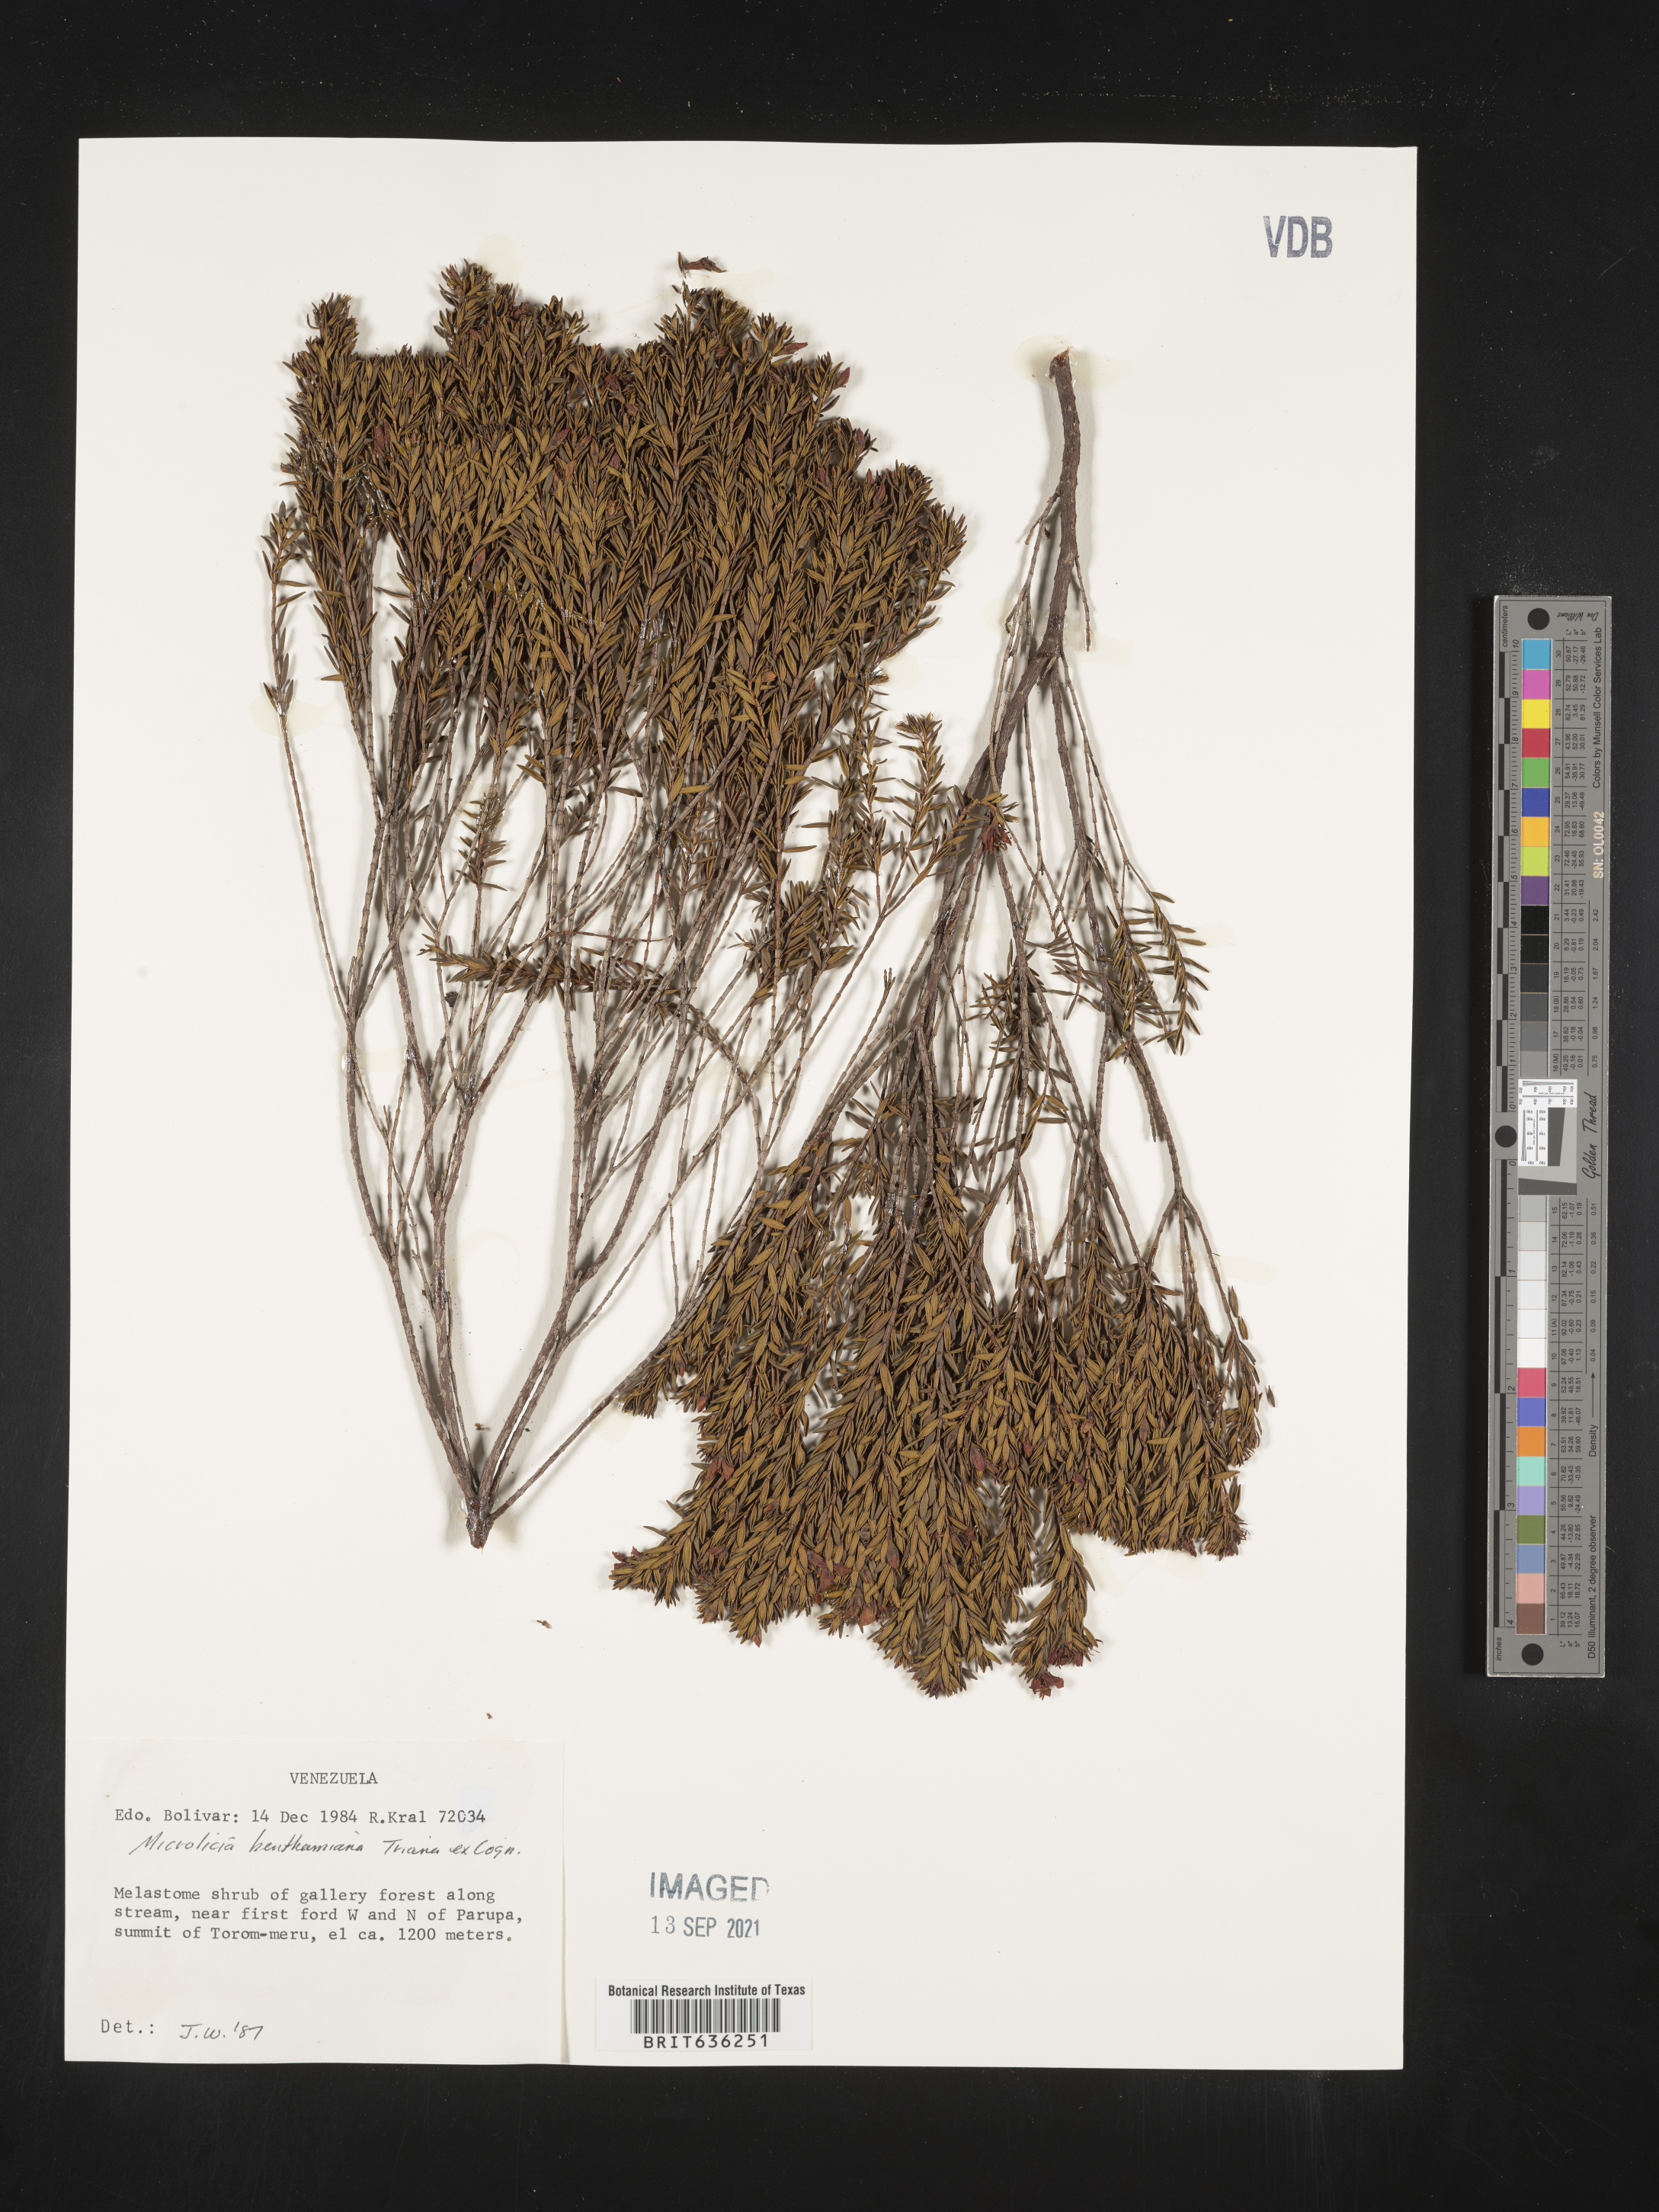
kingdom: Plantae
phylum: Tracheophyta
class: Magnoliopsida
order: Myrtales
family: Melastomataceae
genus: Microlicia
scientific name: Microlicia
